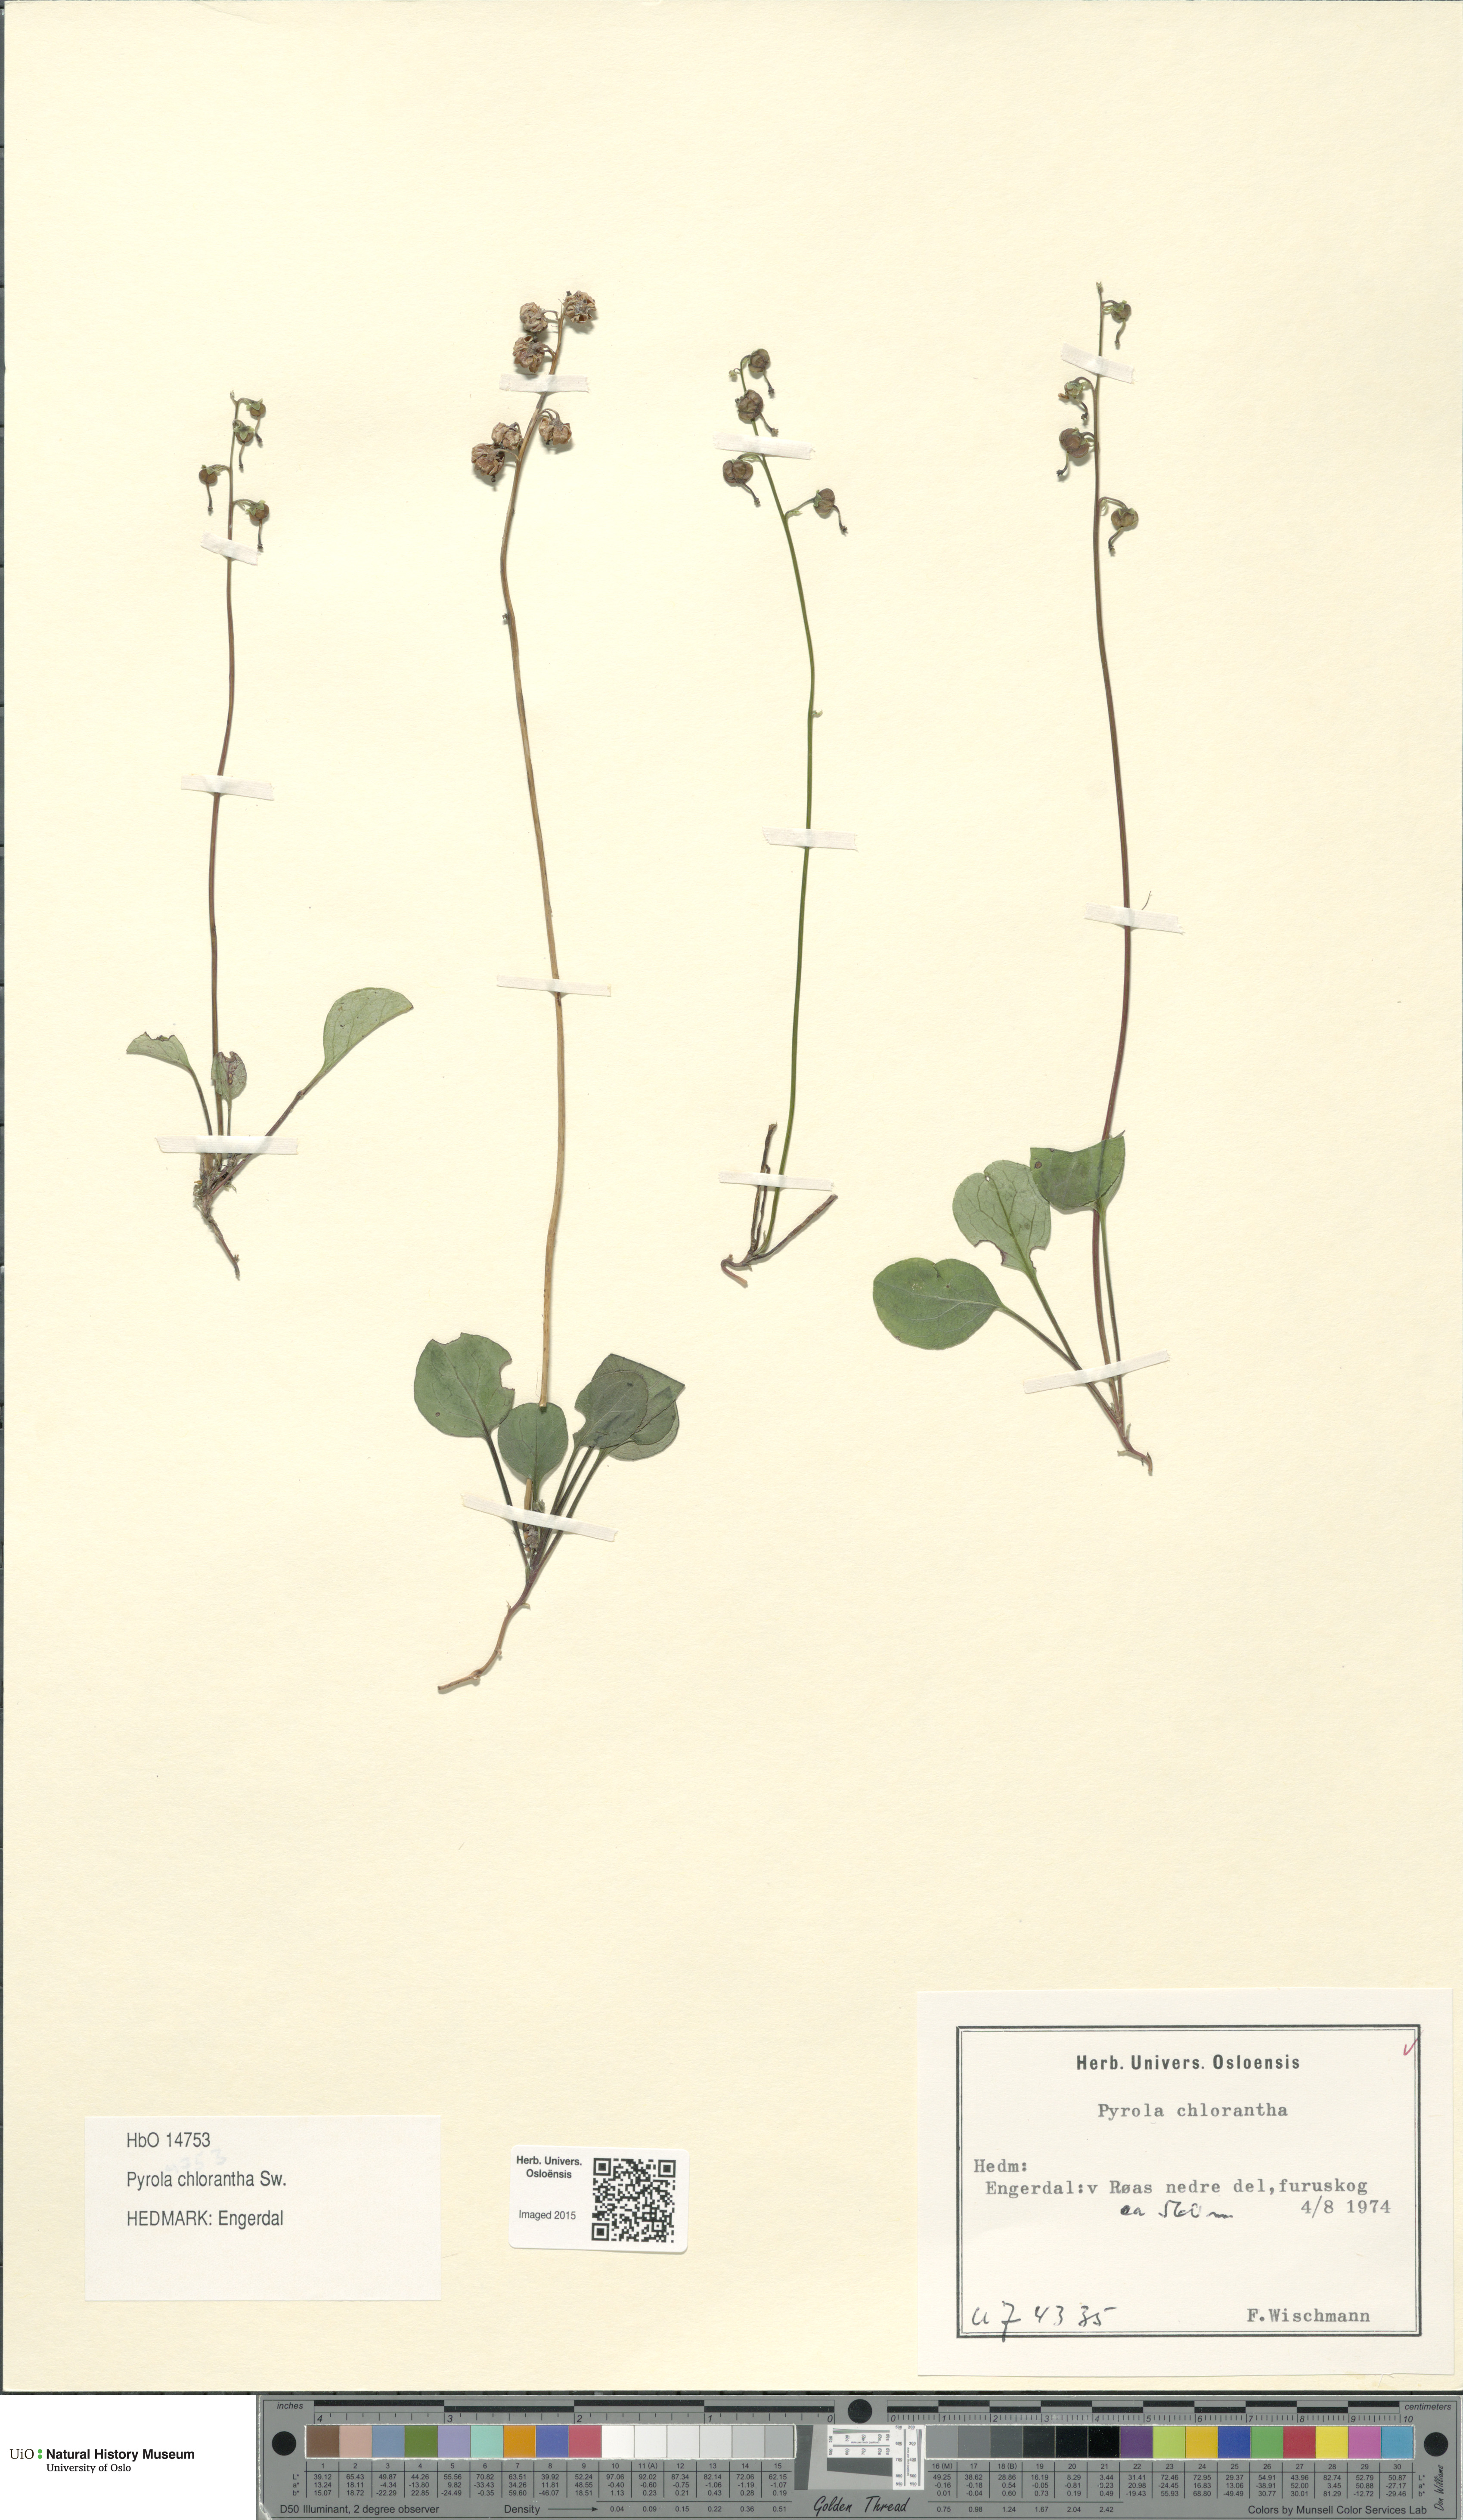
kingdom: Plantae
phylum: Tracheophyta
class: Magnoliopsida
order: Ericales
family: Ericaceae
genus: Pyrola
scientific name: Pyrola chlorantha
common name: Green wintergreen
